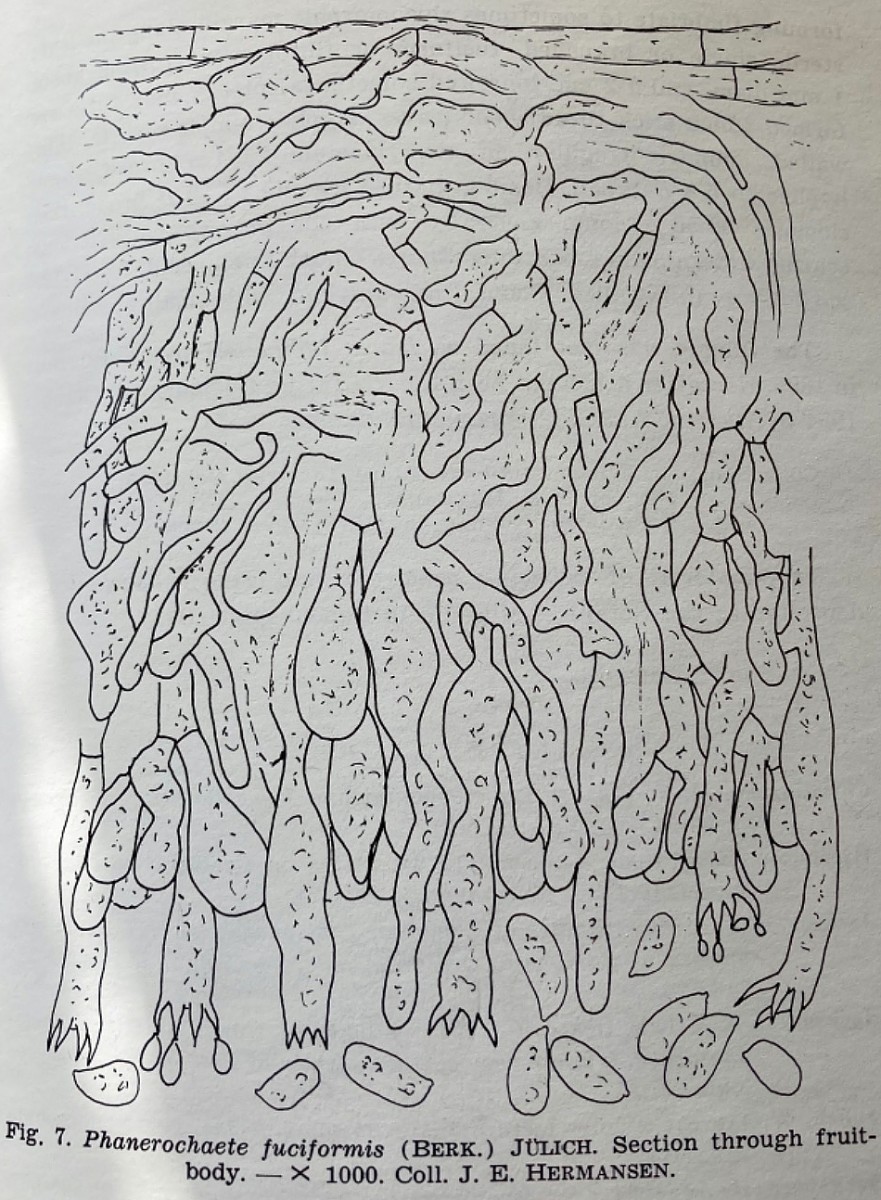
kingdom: Fungi
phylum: Basidiomycota
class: Agaricomycetes
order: Corticiales
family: Corticiaceae
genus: Laetisaria
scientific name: Laetisaria fuciformis
